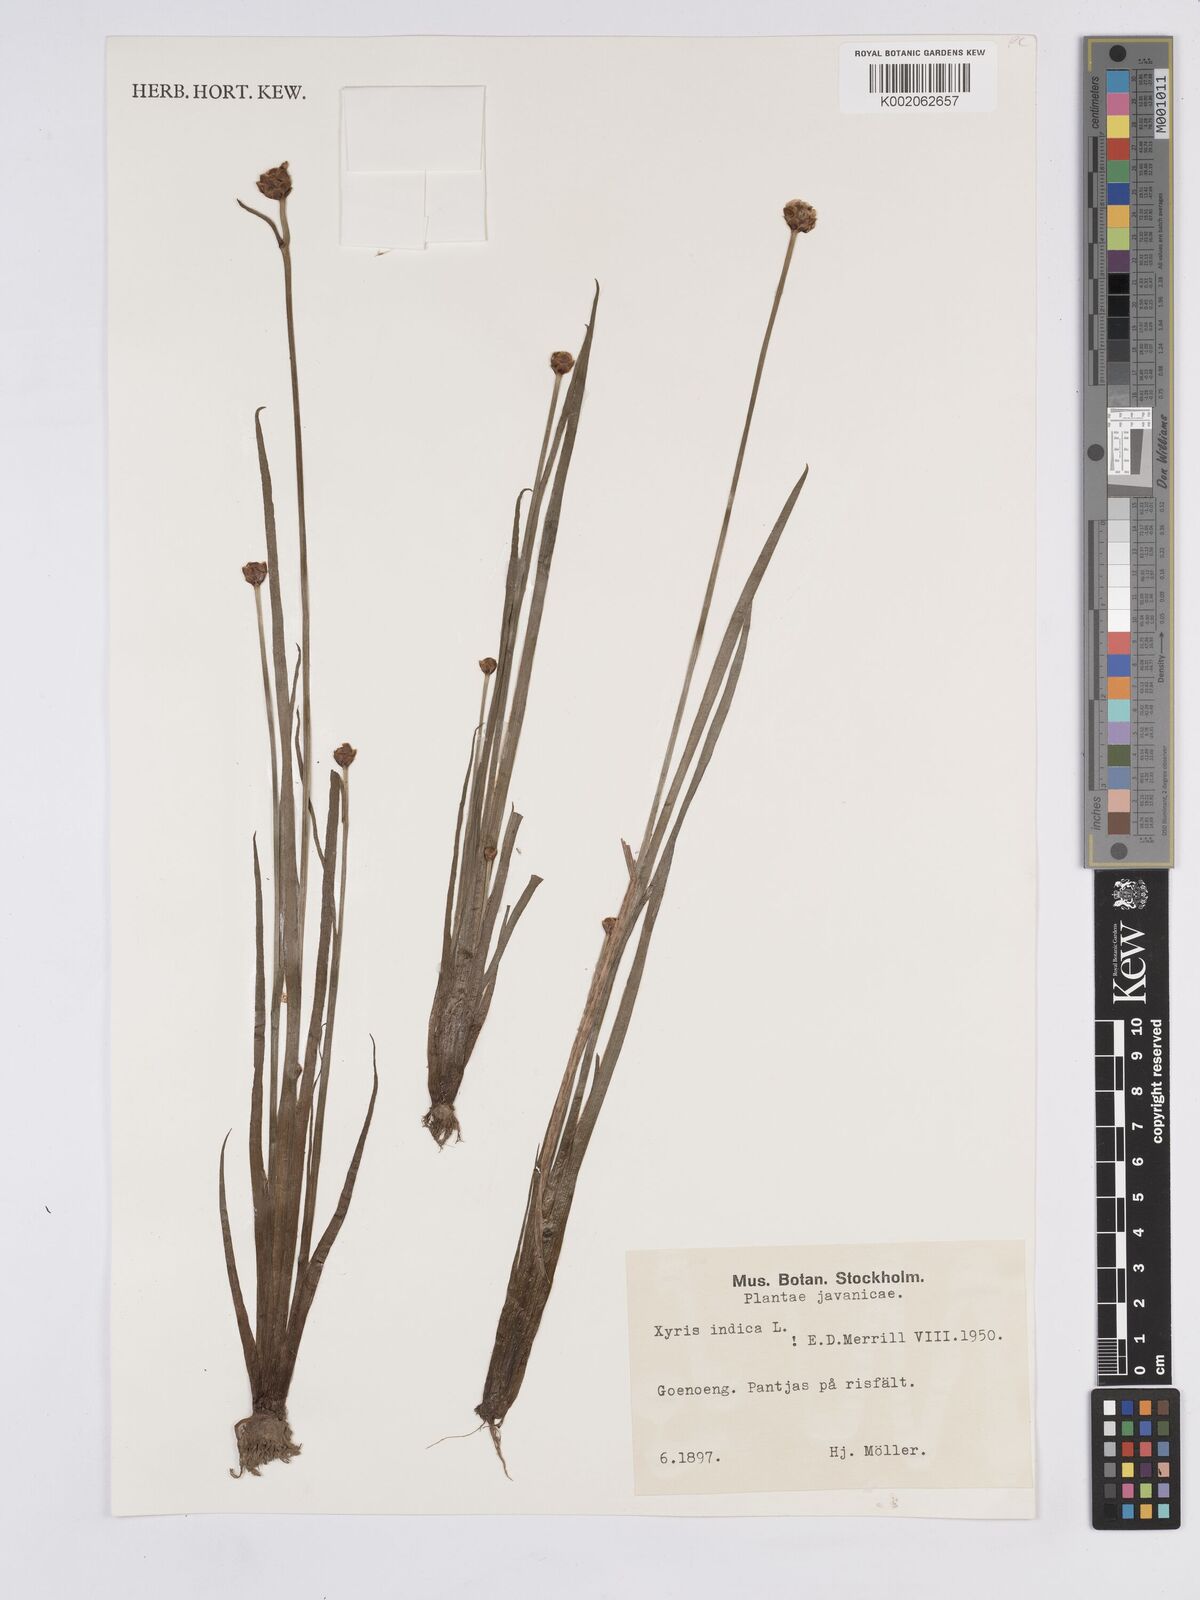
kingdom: Plantae
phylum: Tracheophyta
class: Liliopsida
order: Poales
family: Xyridaceae
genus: Xyris
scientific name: Xyris indica
